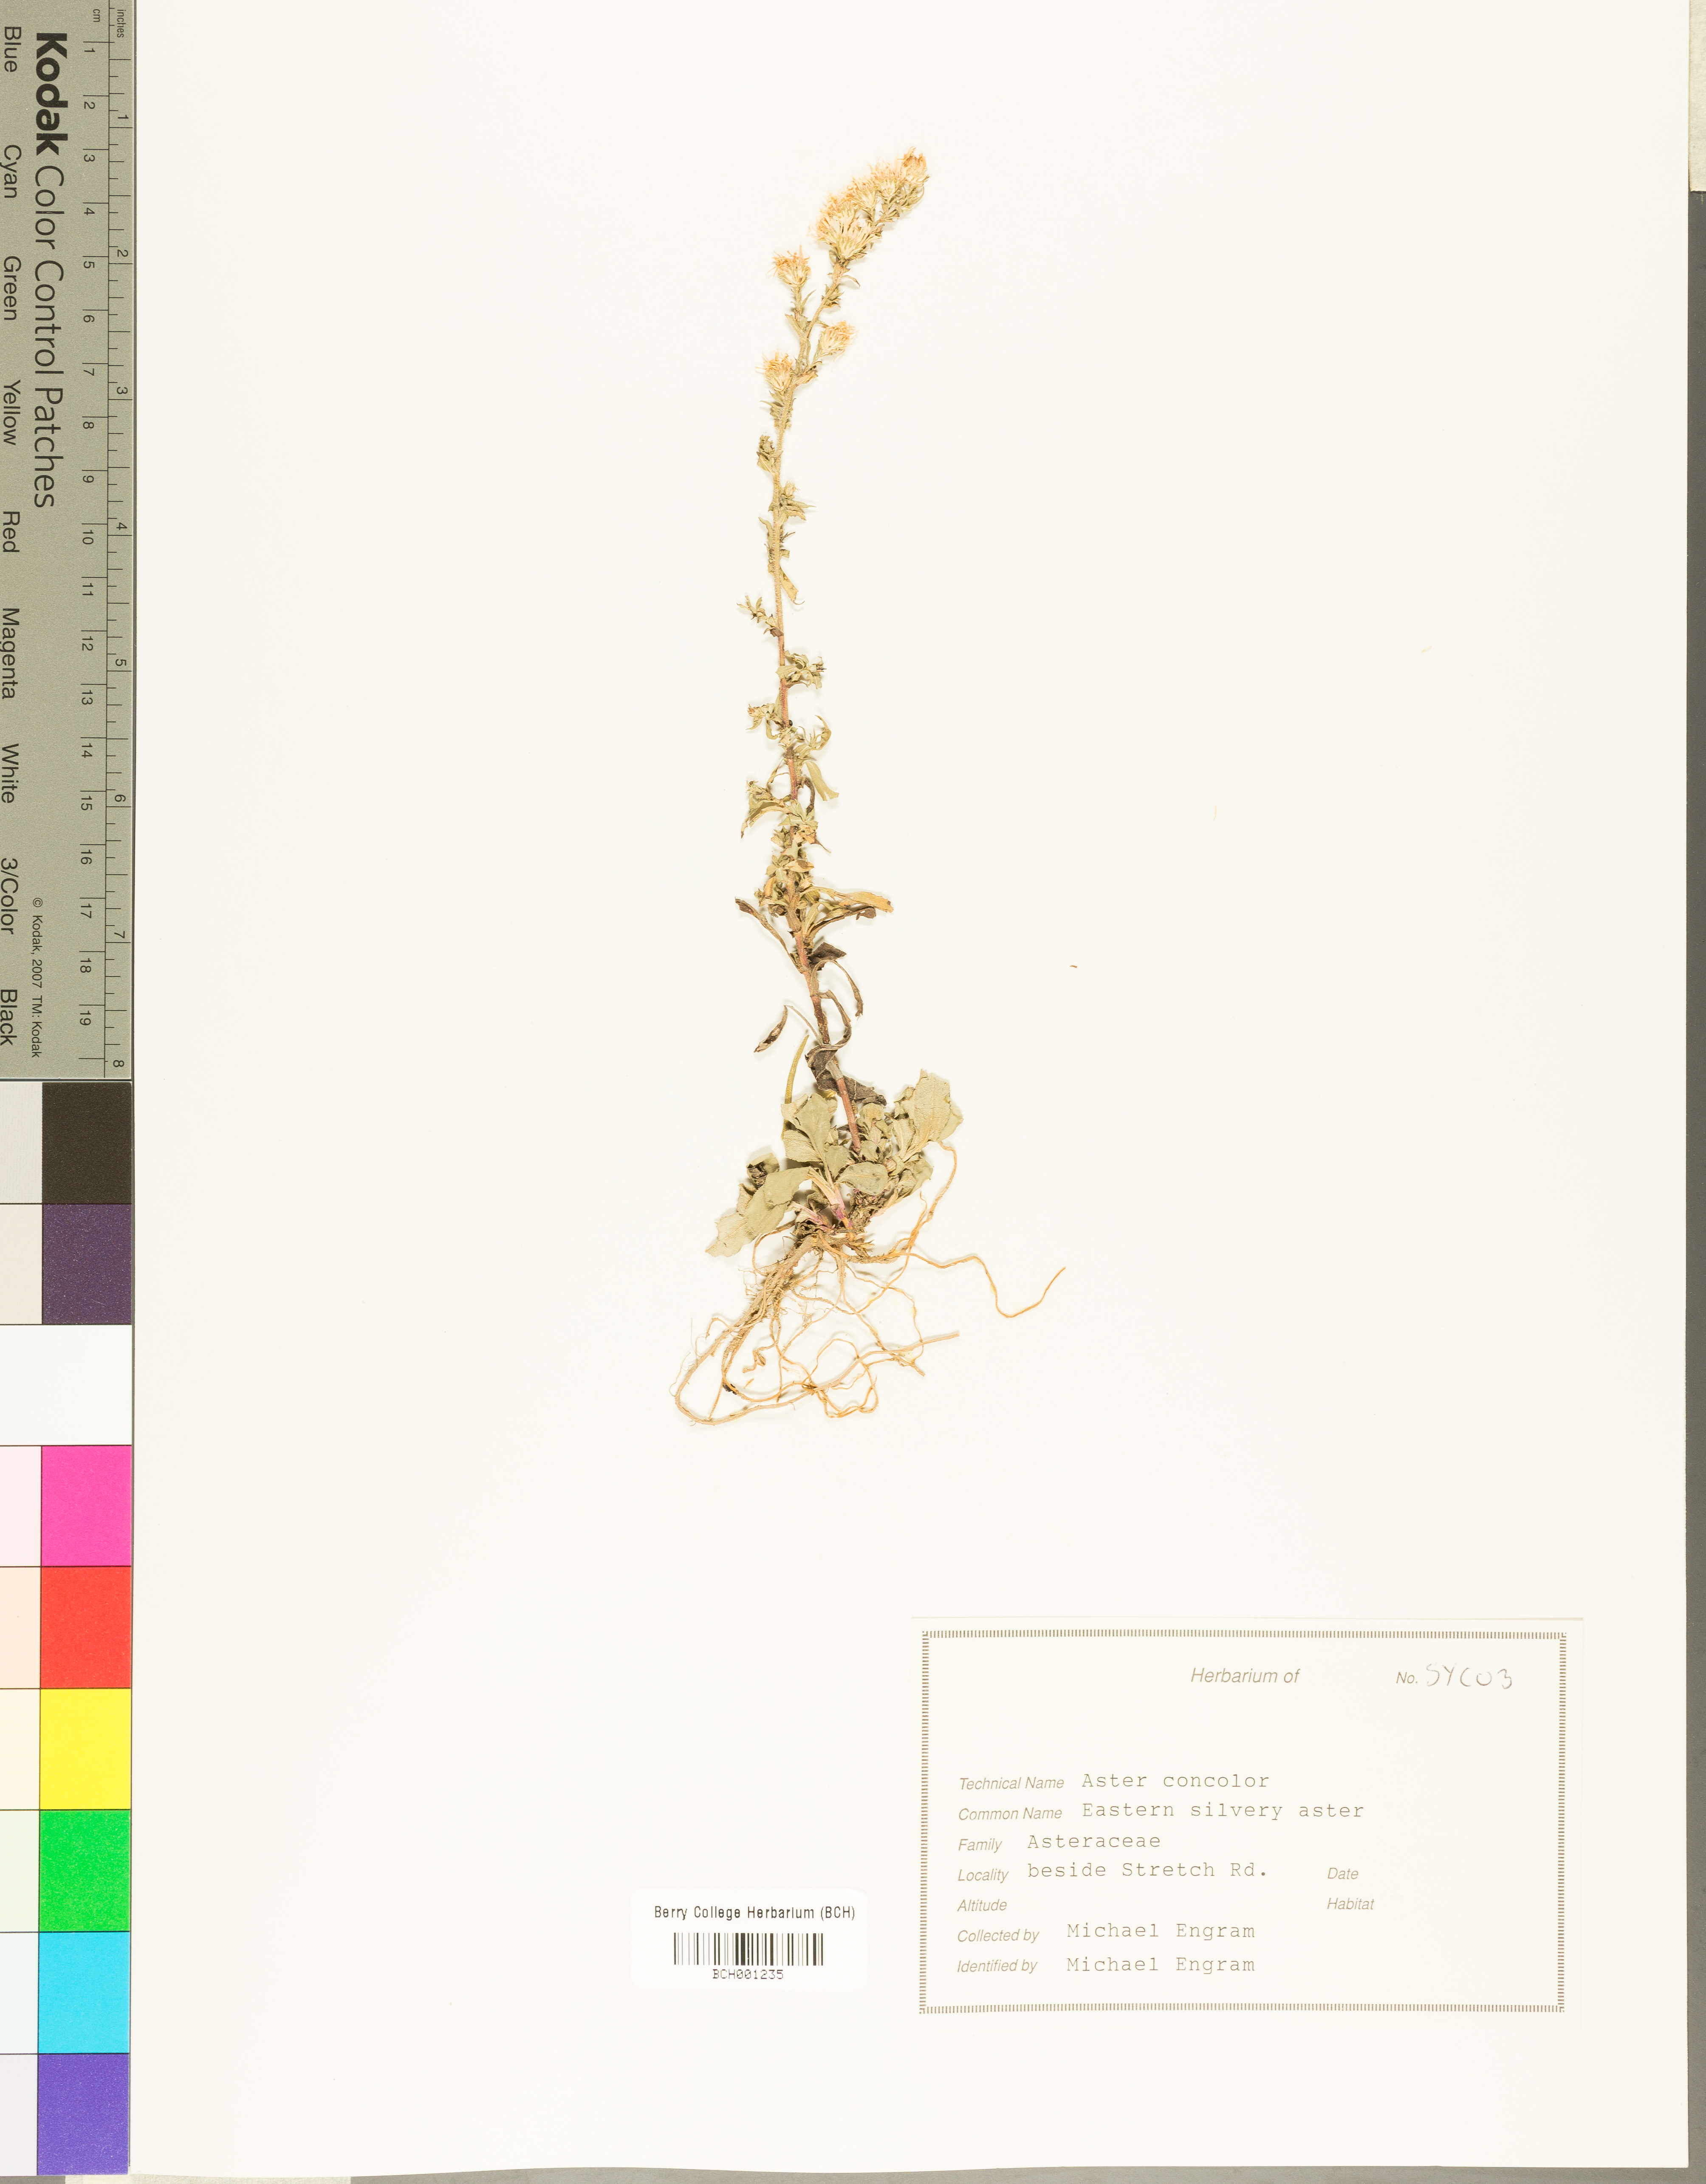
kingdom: Plantae
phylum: Tracheophyta
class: Magnoliopsida
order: Asterales
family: Asteraceae
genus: Symphyotrichum
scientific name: Symphyotrichum concolor
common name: Eastern silver aster
